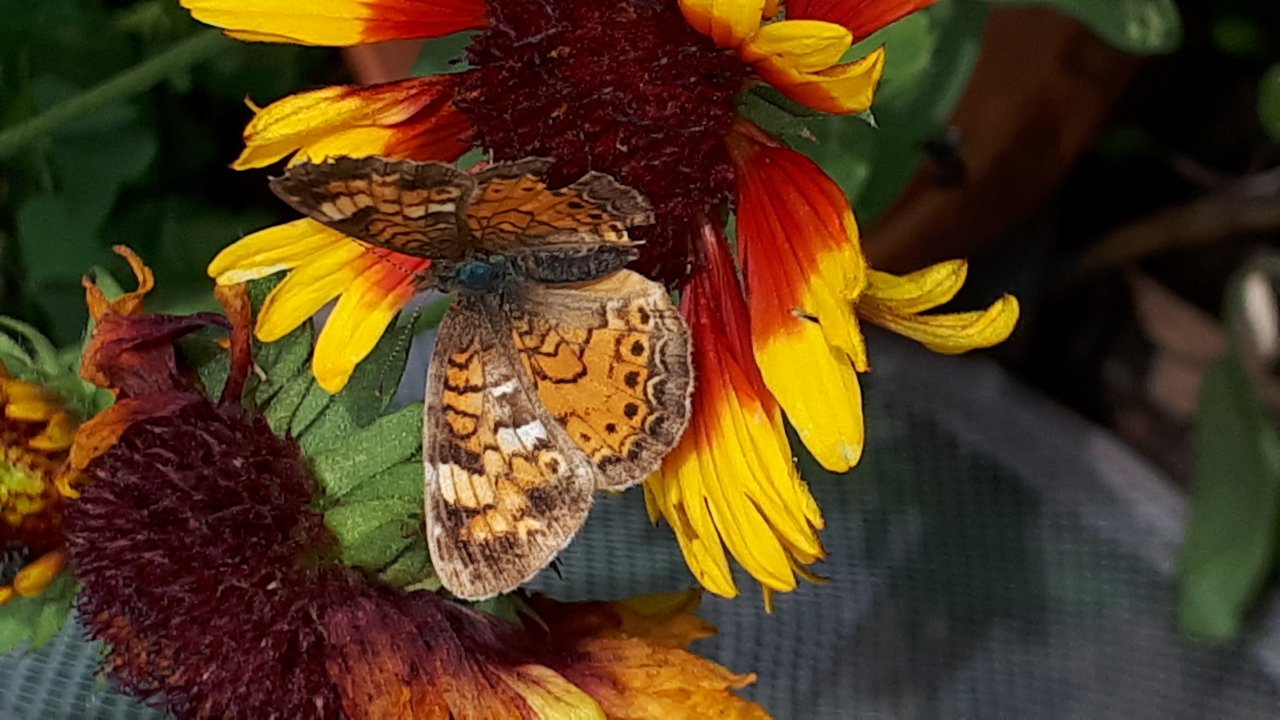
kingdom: Animalia
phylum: Arthropoda
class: Insecta
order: Lepidoptera
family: Nymphalidae
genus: Phyciodes
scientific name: Phyciodes tharos
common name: Northern Crescent
